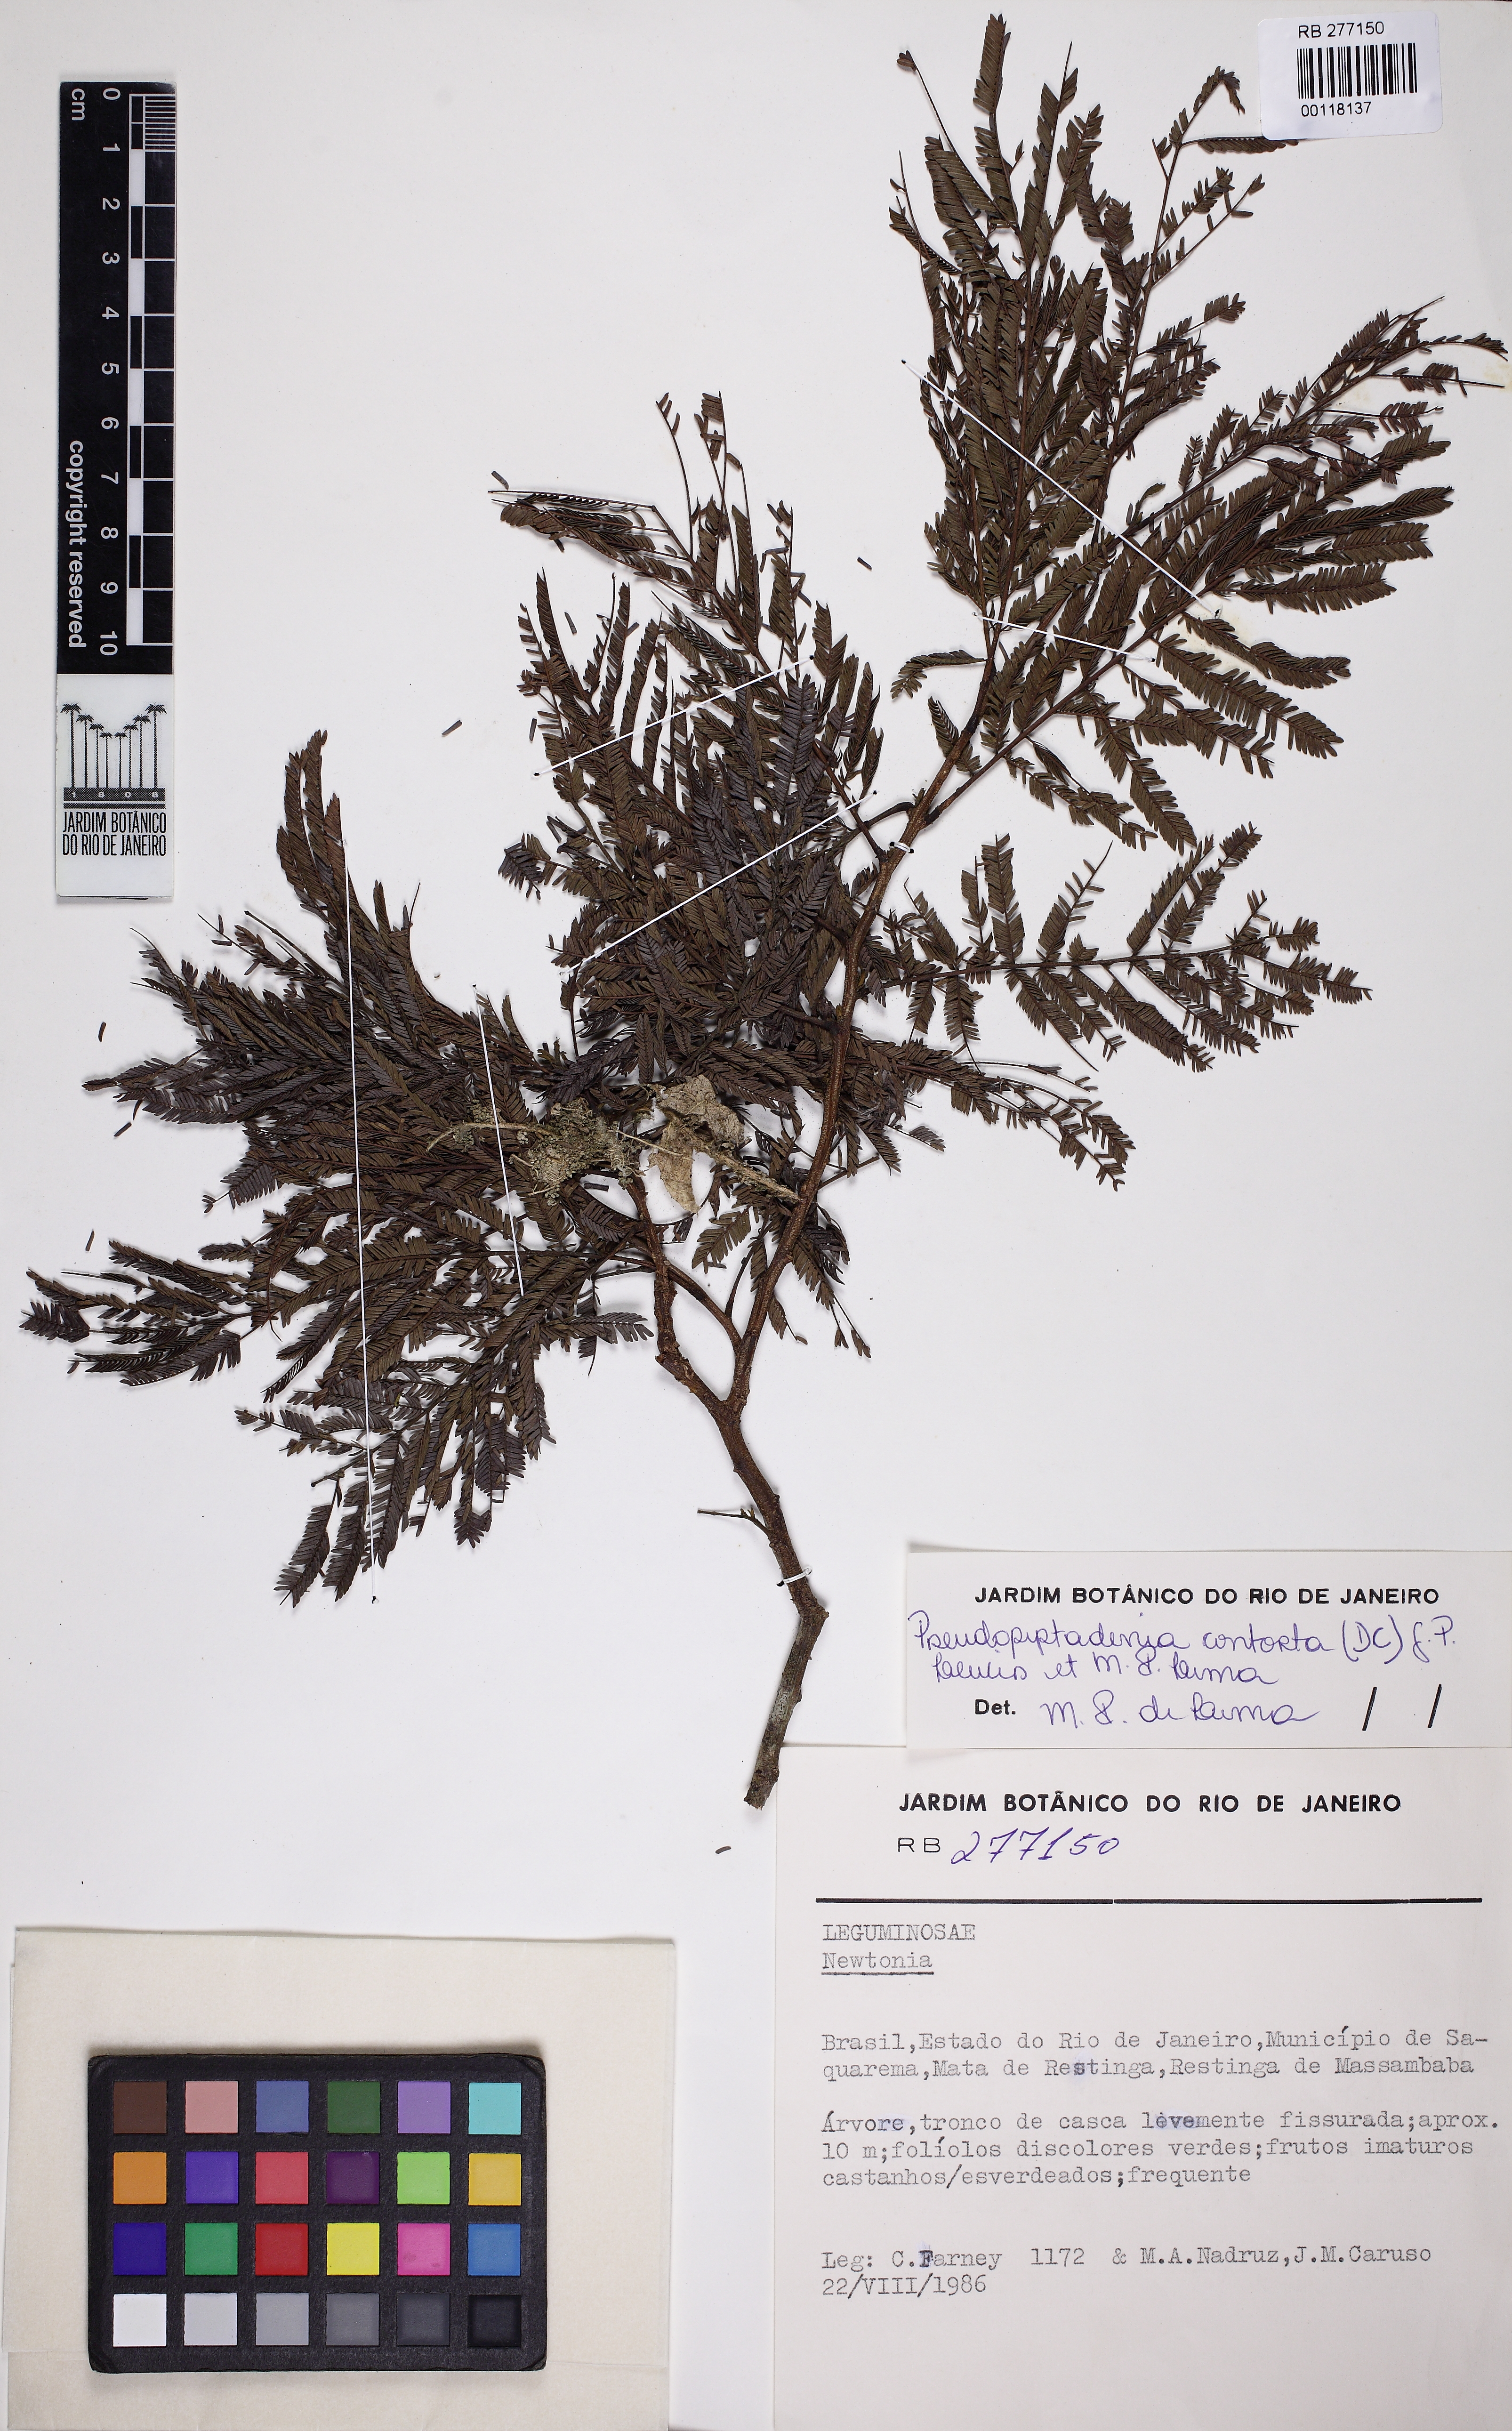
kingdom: Plantae
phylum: Tracheophyta
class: Magnoliopsida
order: Fabales
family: Fabaceae
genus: Pseudopiptadenia
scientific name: Pseudopiptadenia contorta
